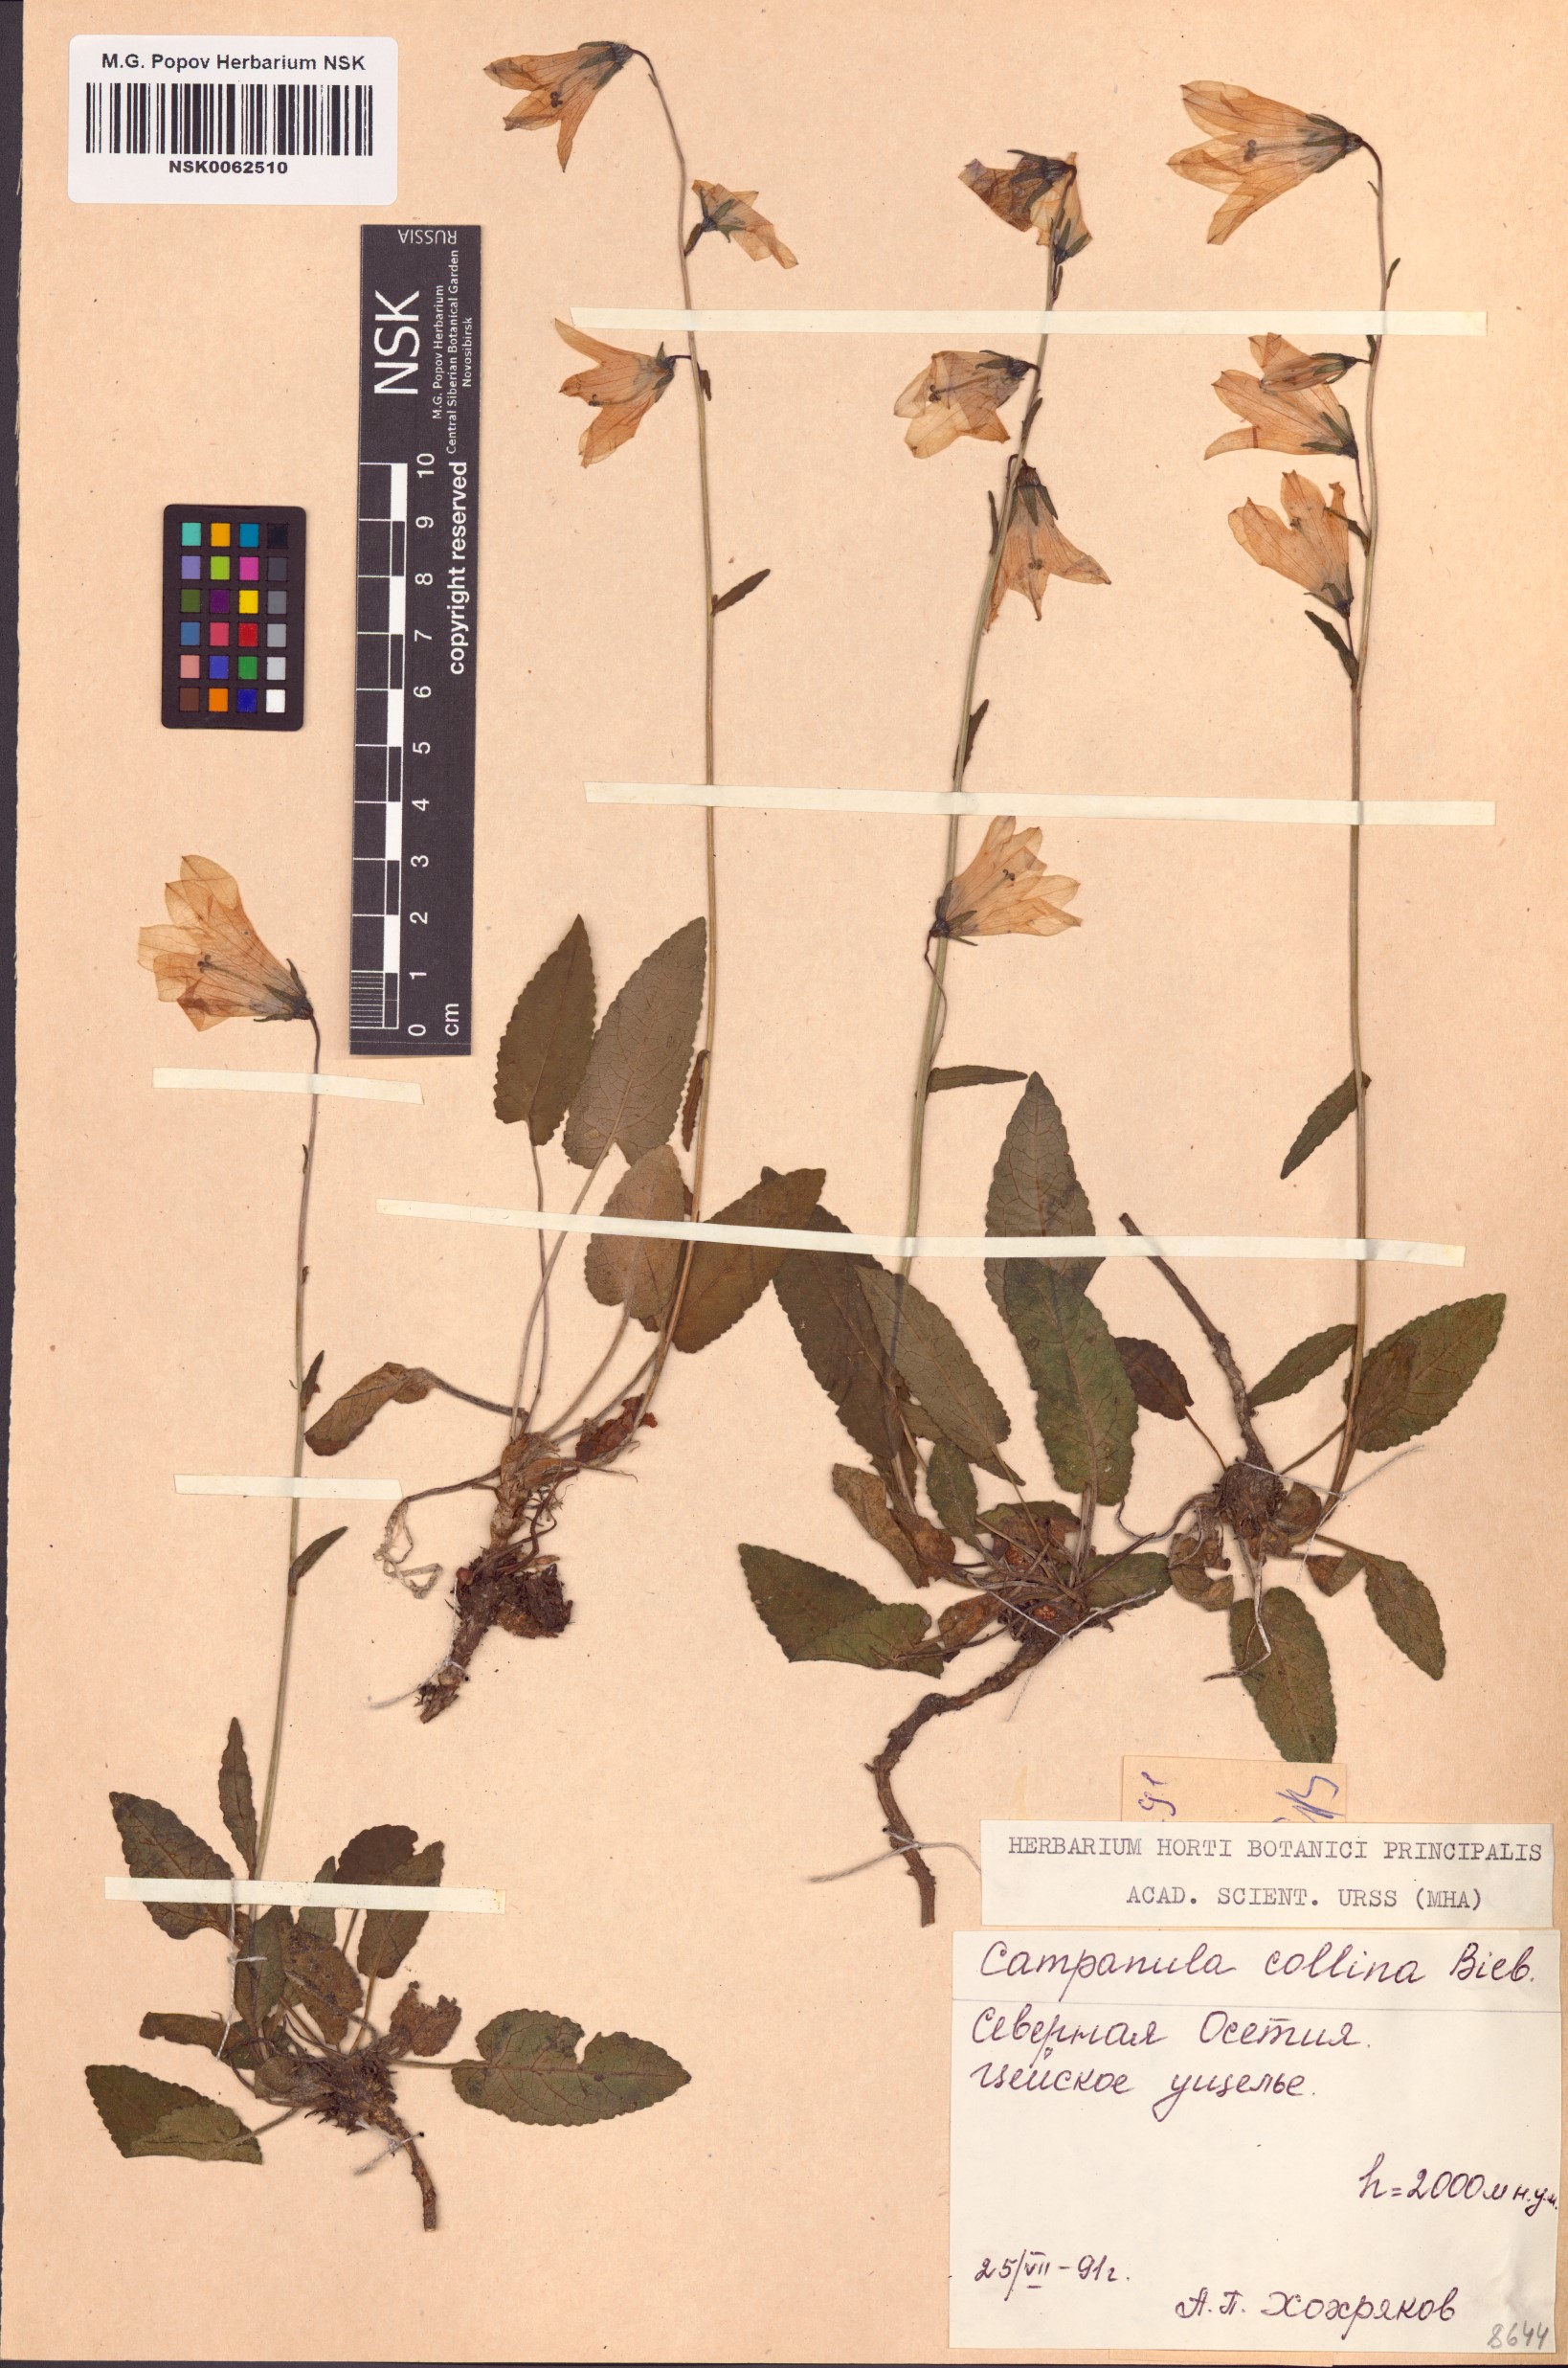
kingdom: Plantae
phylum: Tracheophyta
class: Magnoliopsida
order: Asterales
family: Campanulaceae
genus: Campanula
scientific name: Campanula collina
